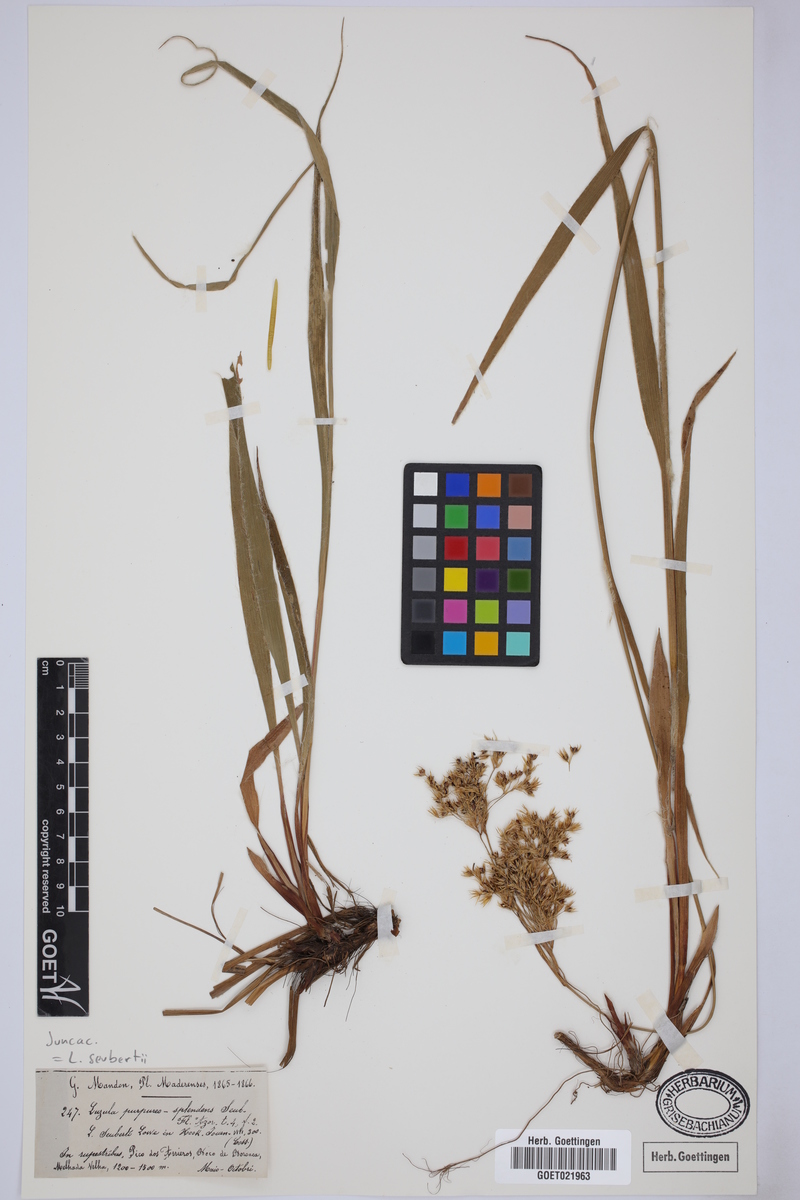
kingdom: Plantae
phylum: Tracheophyta
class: Liliopsida
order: Poales
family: Juncaceae
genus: Luzula
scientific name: Luzula seubertii
